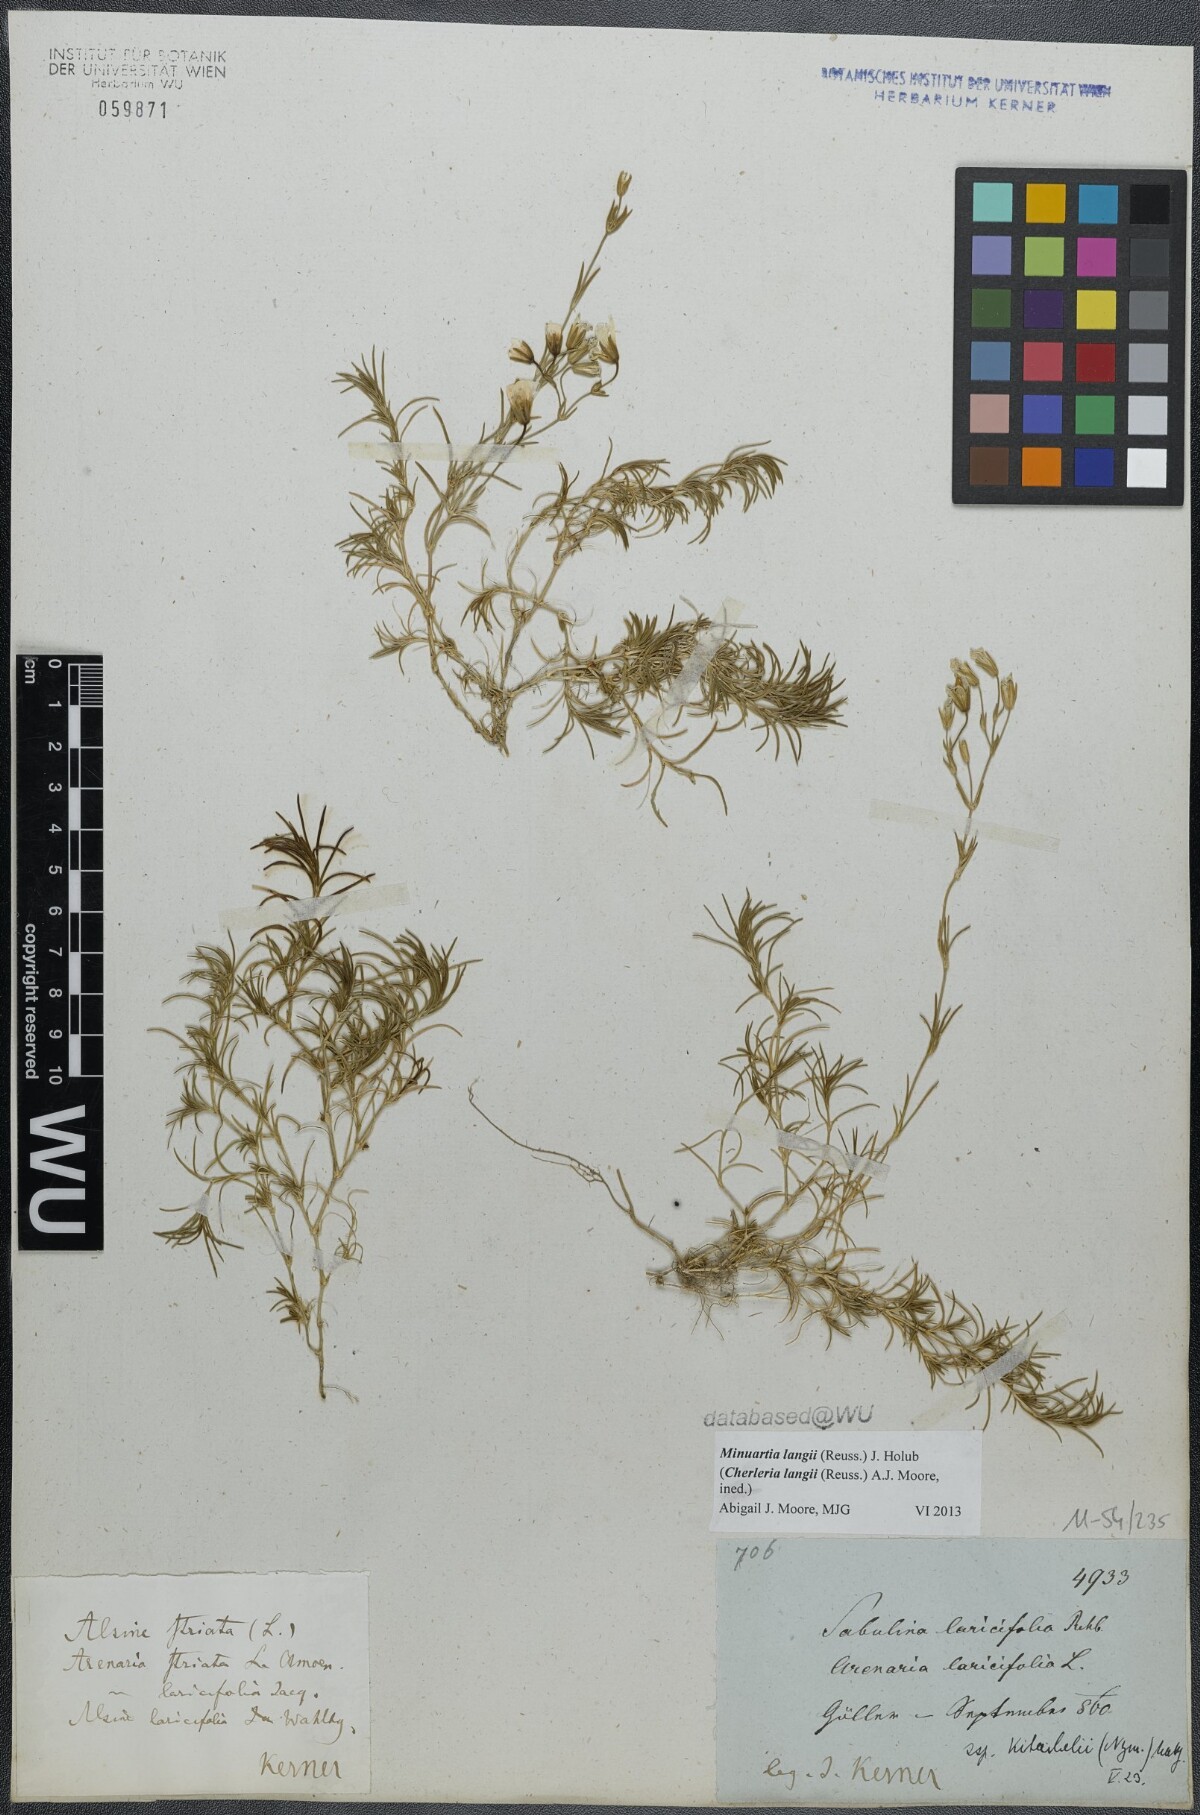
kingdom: Plantae
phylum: Tracheophyta
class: Magnoliopsida
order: Caryophyllales
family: Caryophyllaceae
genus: Cherleria
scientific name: Cherleria langii
